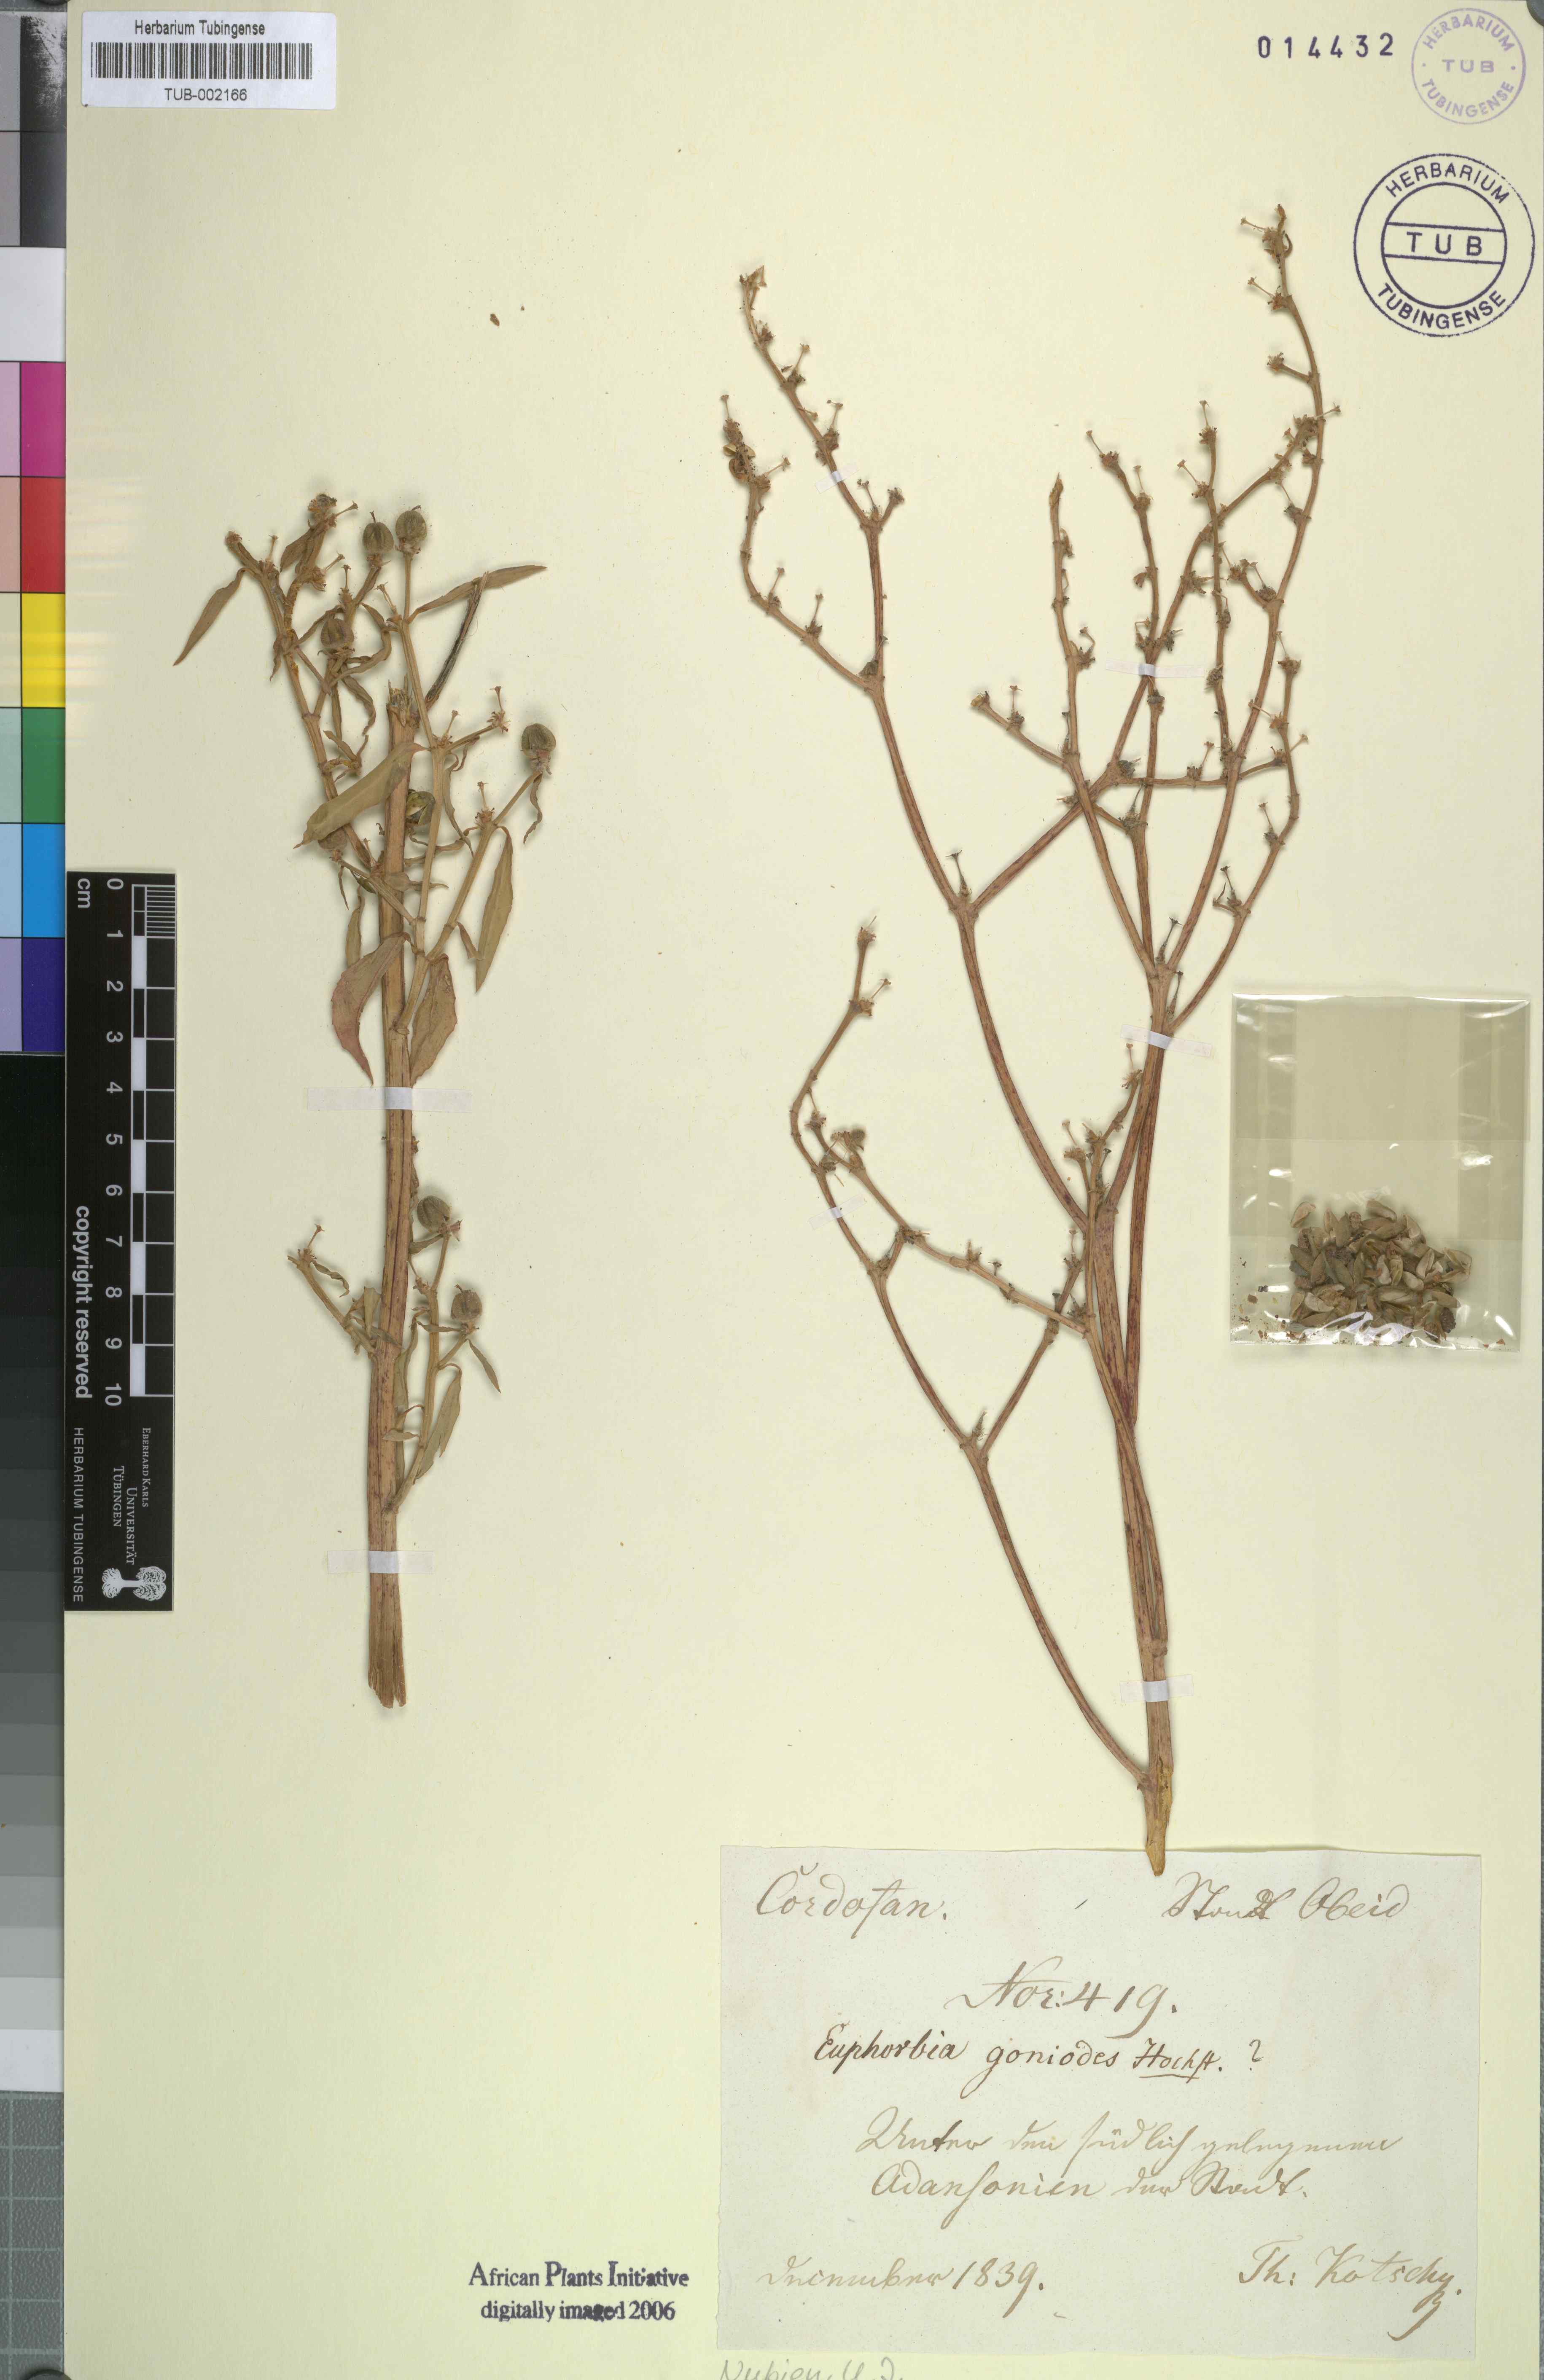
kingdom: Plantae
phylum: Tracheophyta
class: Magnoliopsida
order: Malpighiales
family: Euphorbiaceae
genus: Euphorbia
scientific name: Euphorbia crotonoides
